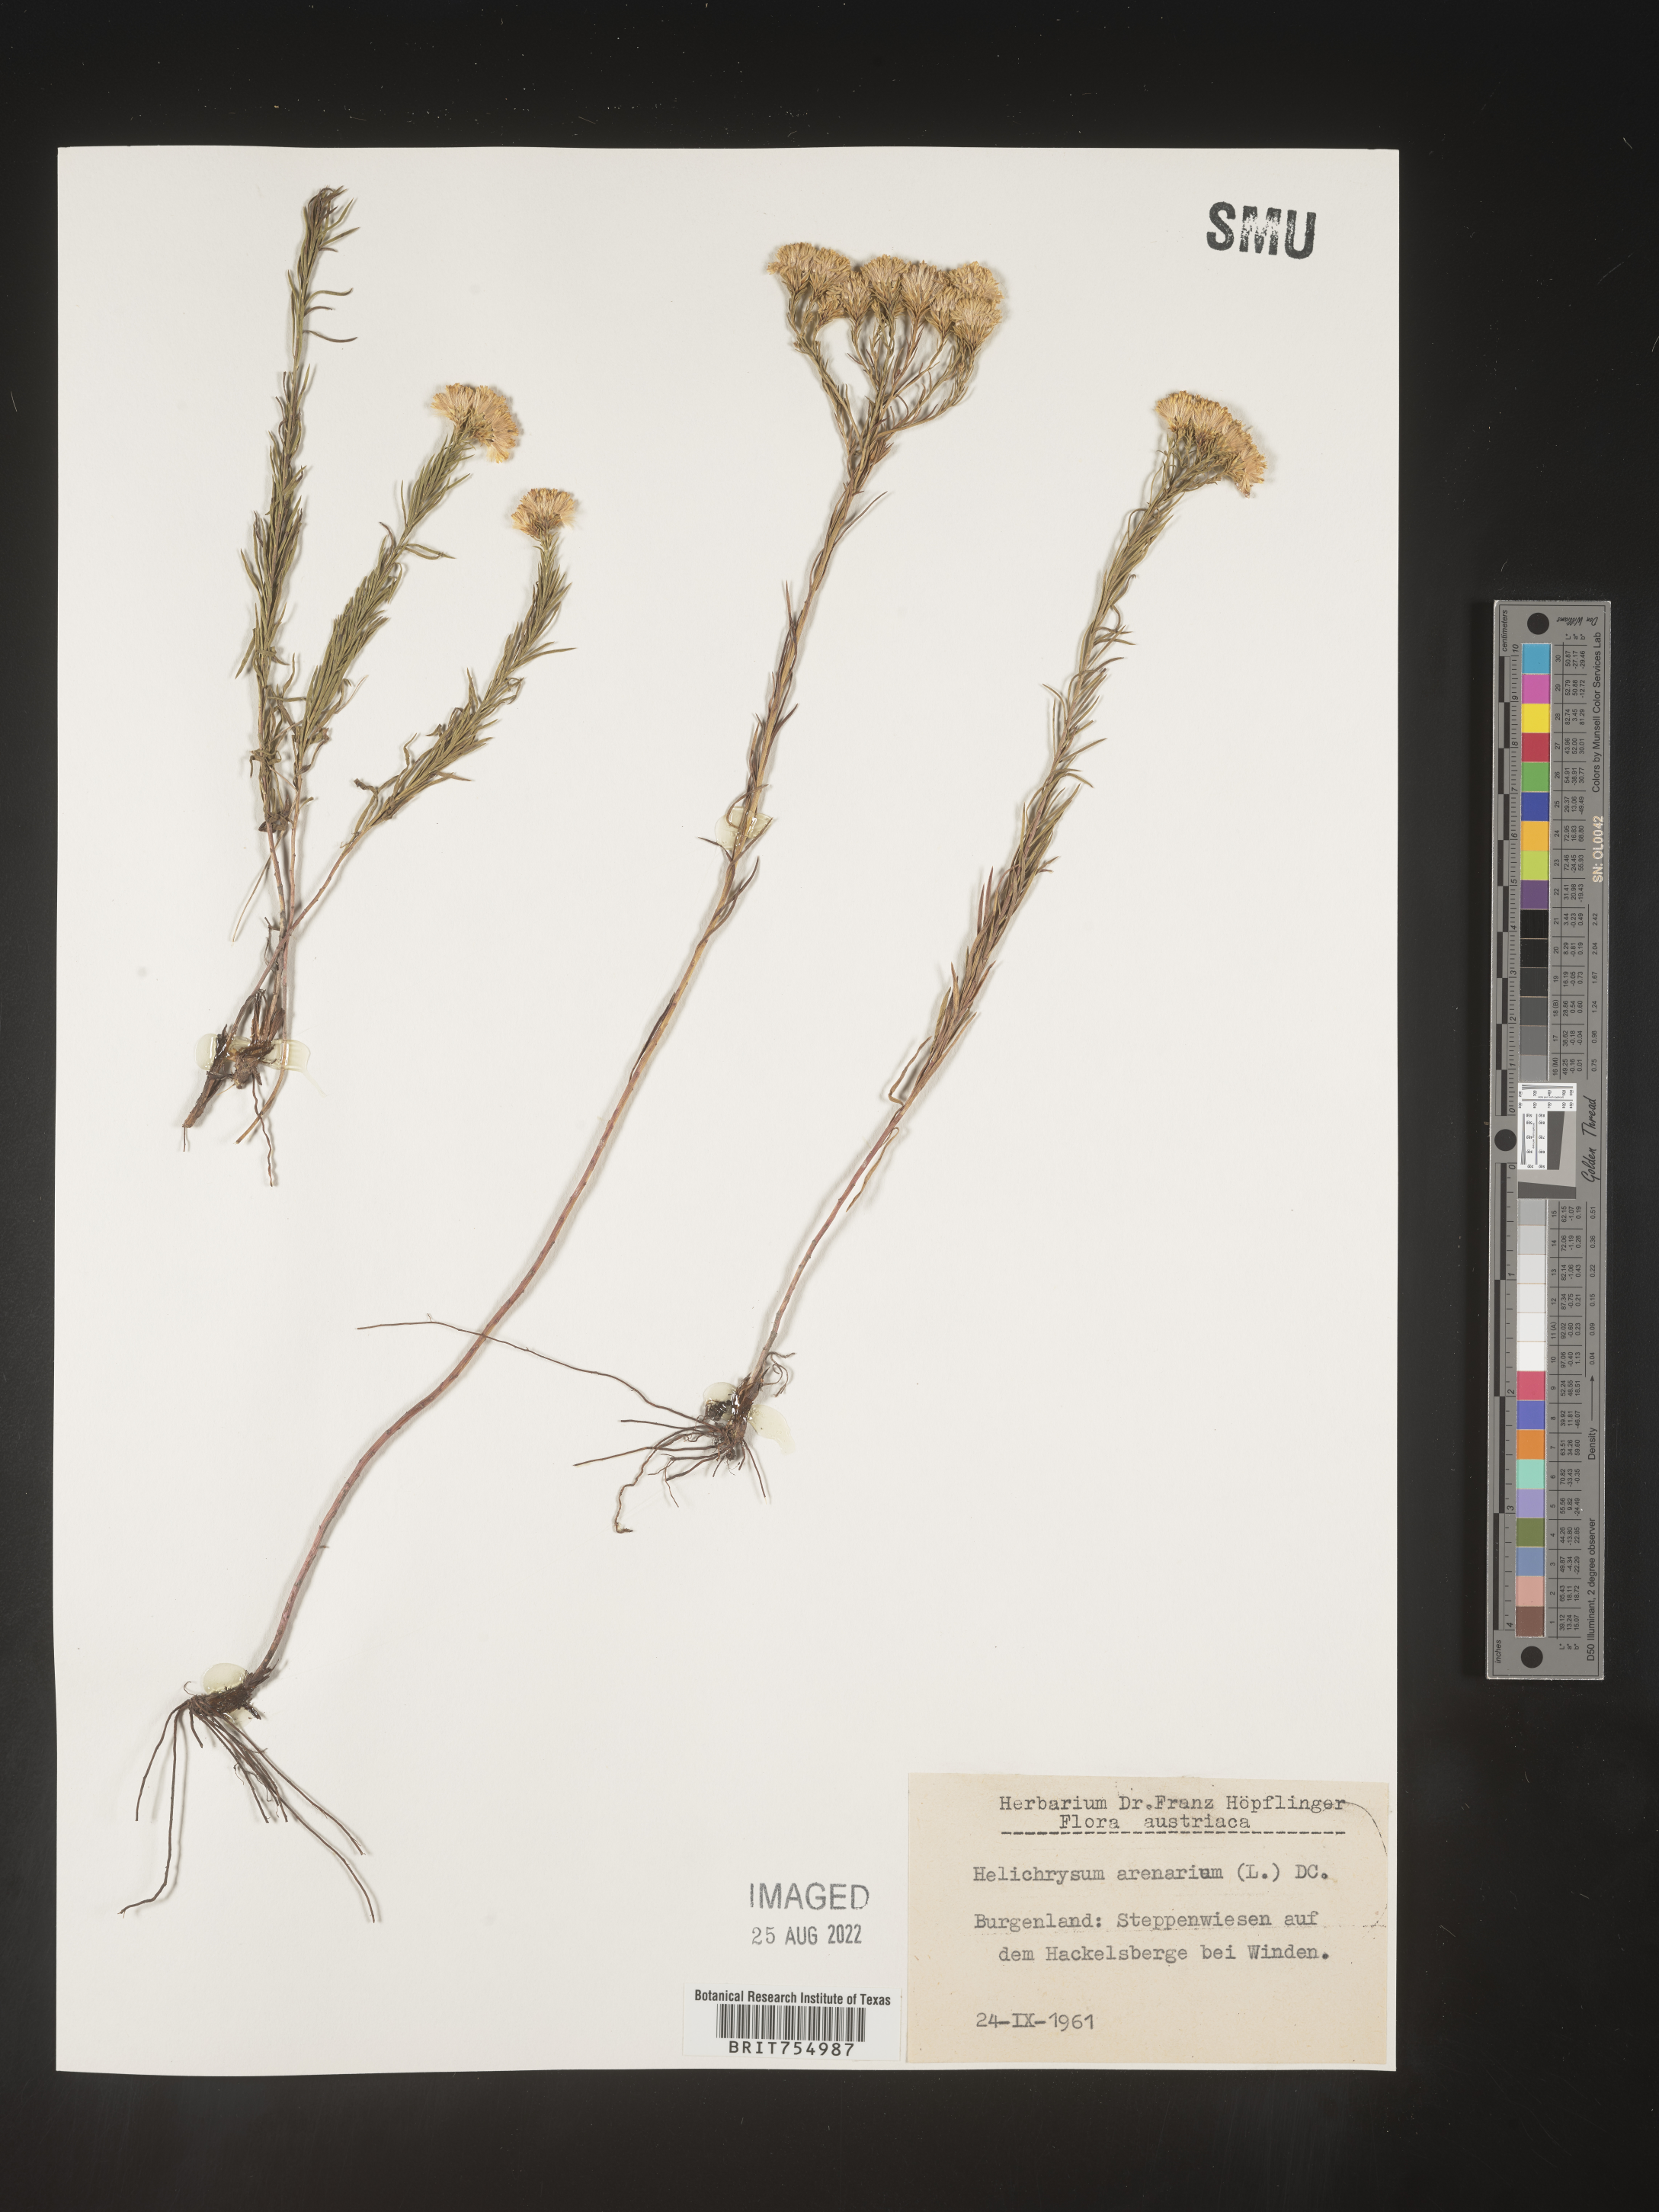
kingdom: Plantae
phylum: Tracheophyta
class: Magnoliopsida
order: Asterales
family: Asteraceae
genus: Symphyotrichum
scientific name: Symphyotrichum
